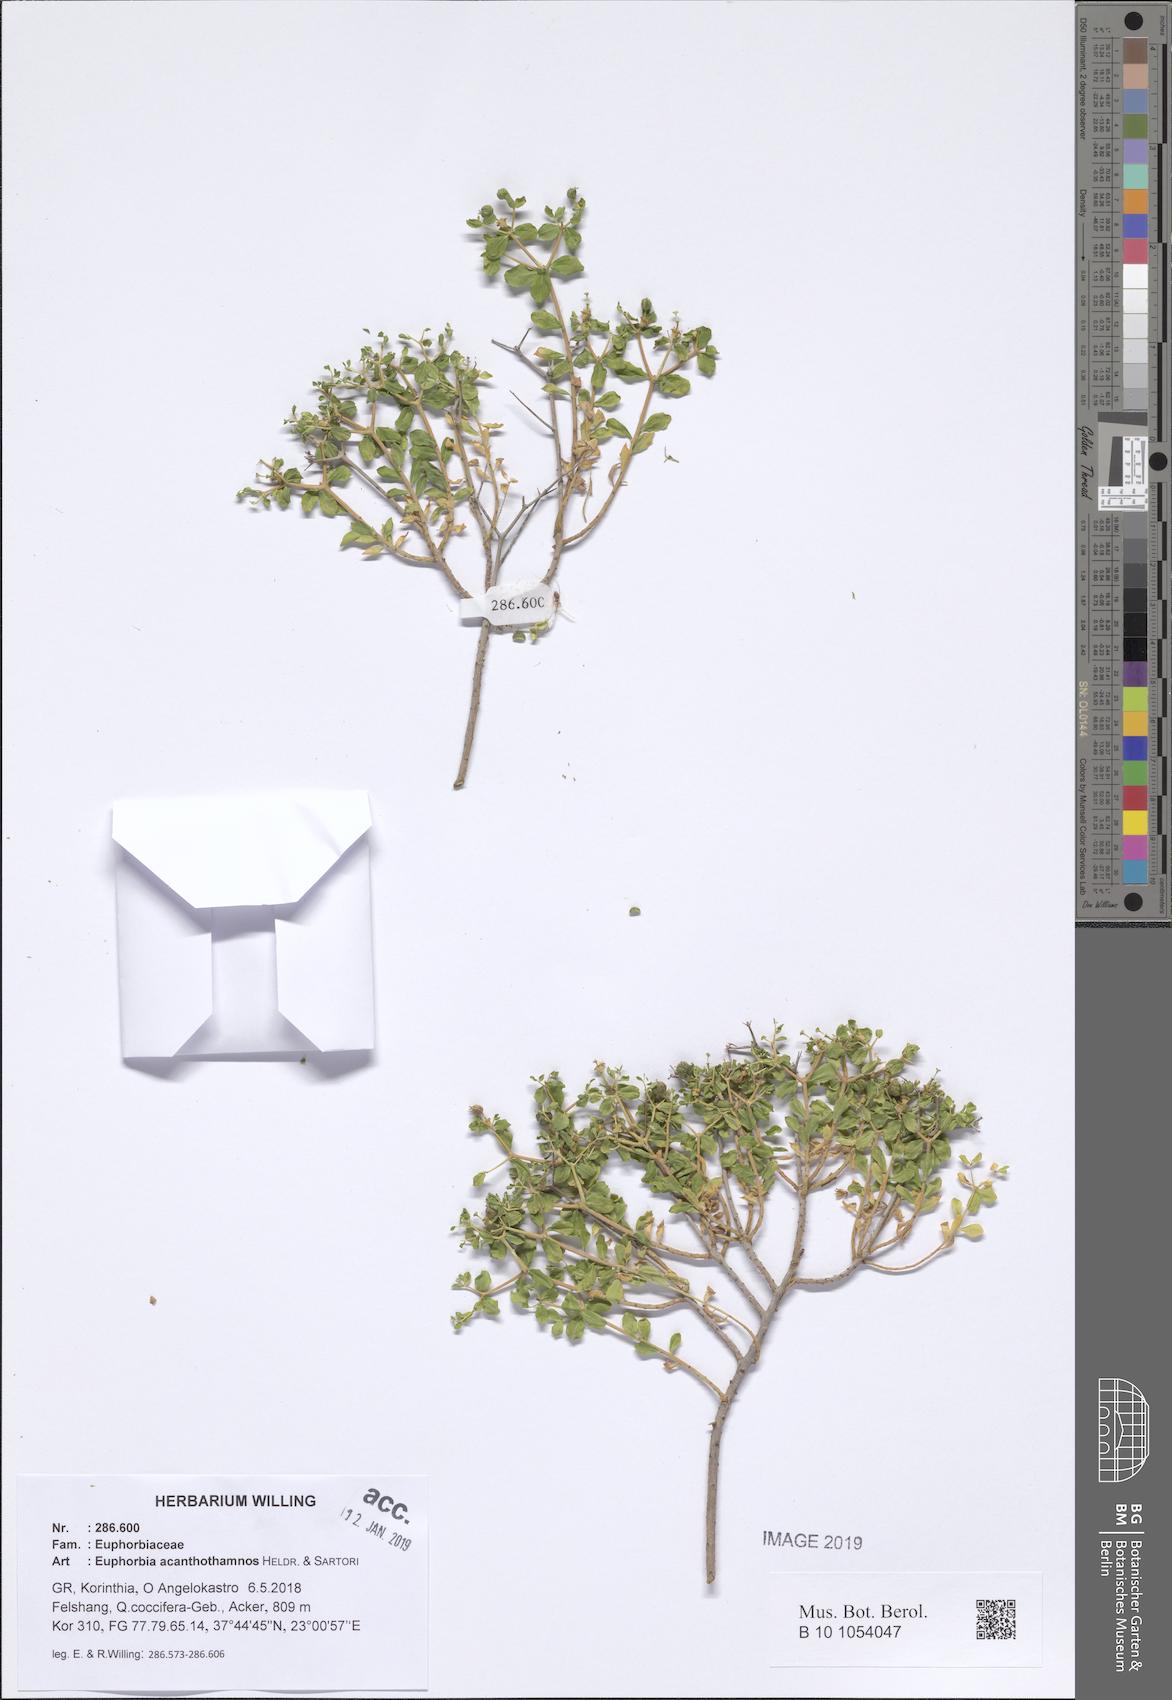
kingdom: Plantae
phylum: Tracheophyta
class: Magnoliopsida
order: Malpighiales
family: Euphorbiaceae
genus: Euphorbia
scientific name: Euphorbia acanthothamnos
